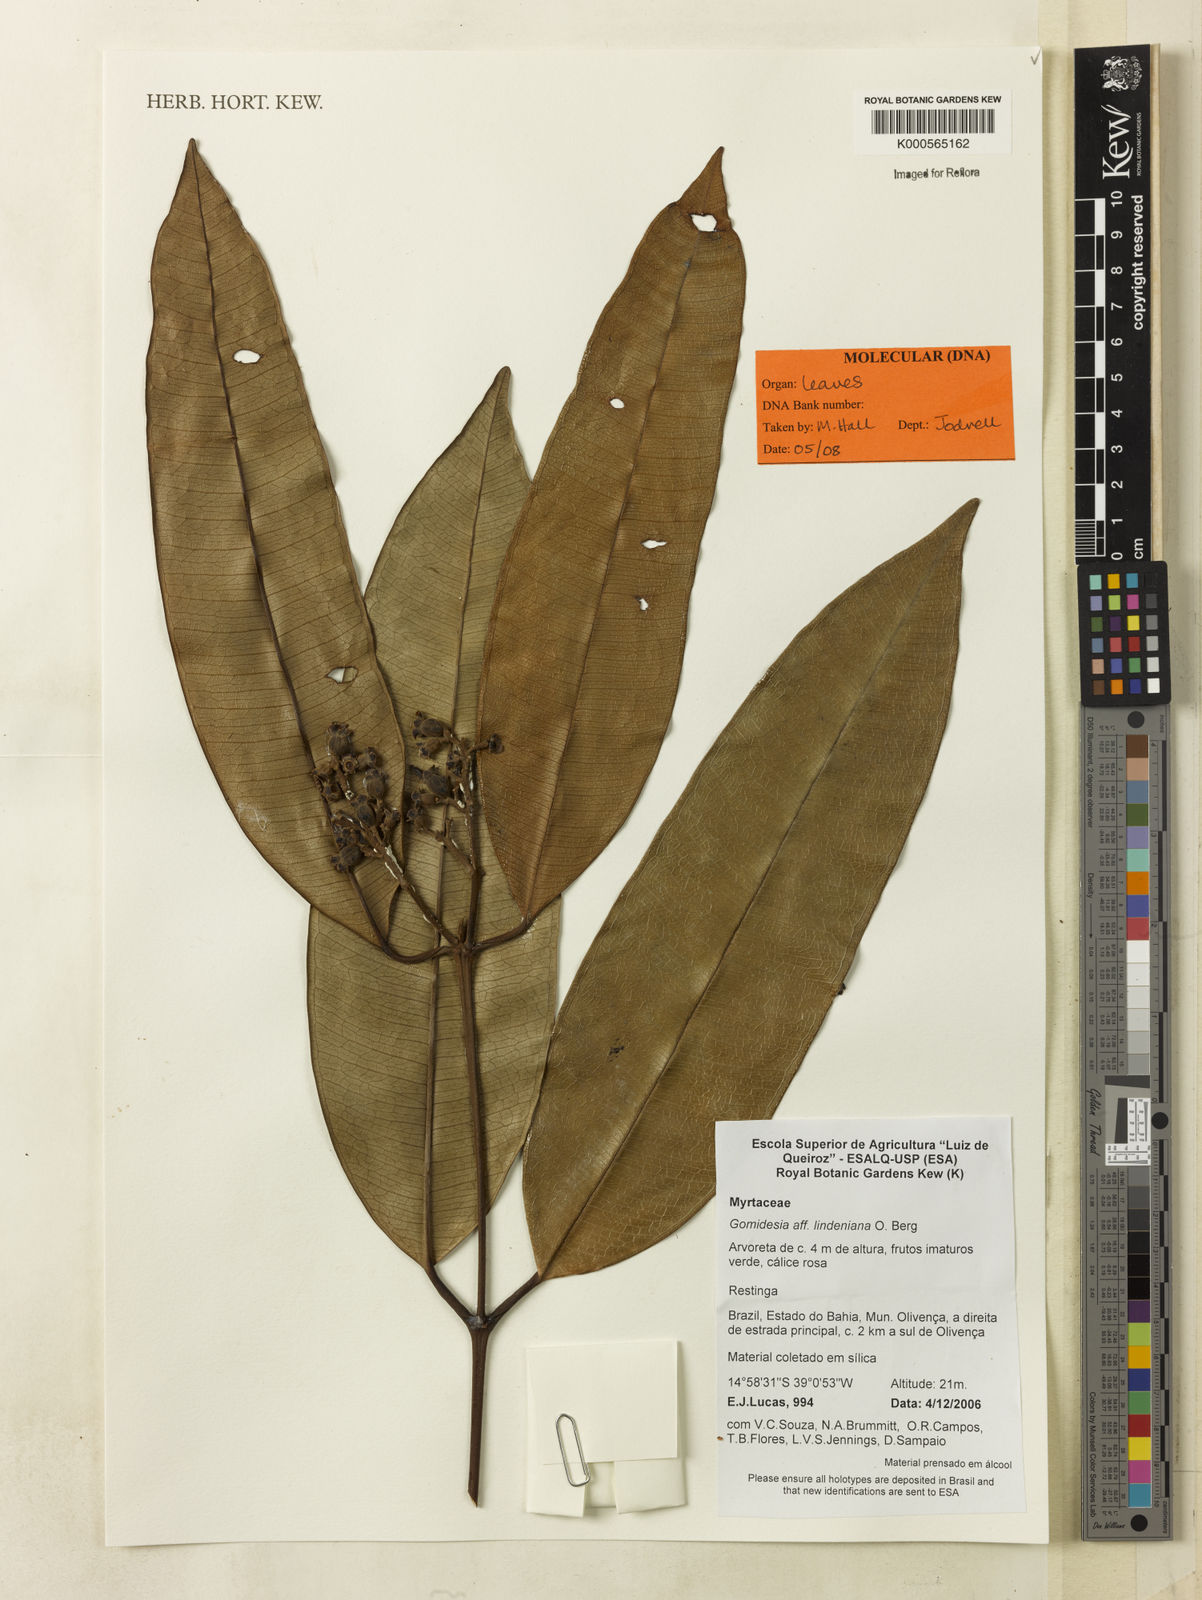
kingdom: Plantae
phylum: Tracheophyta
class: Magnoliopsida
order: Myrtales
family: Myrtaceae
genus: Myrcia
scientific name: Myrcia fenzliana
